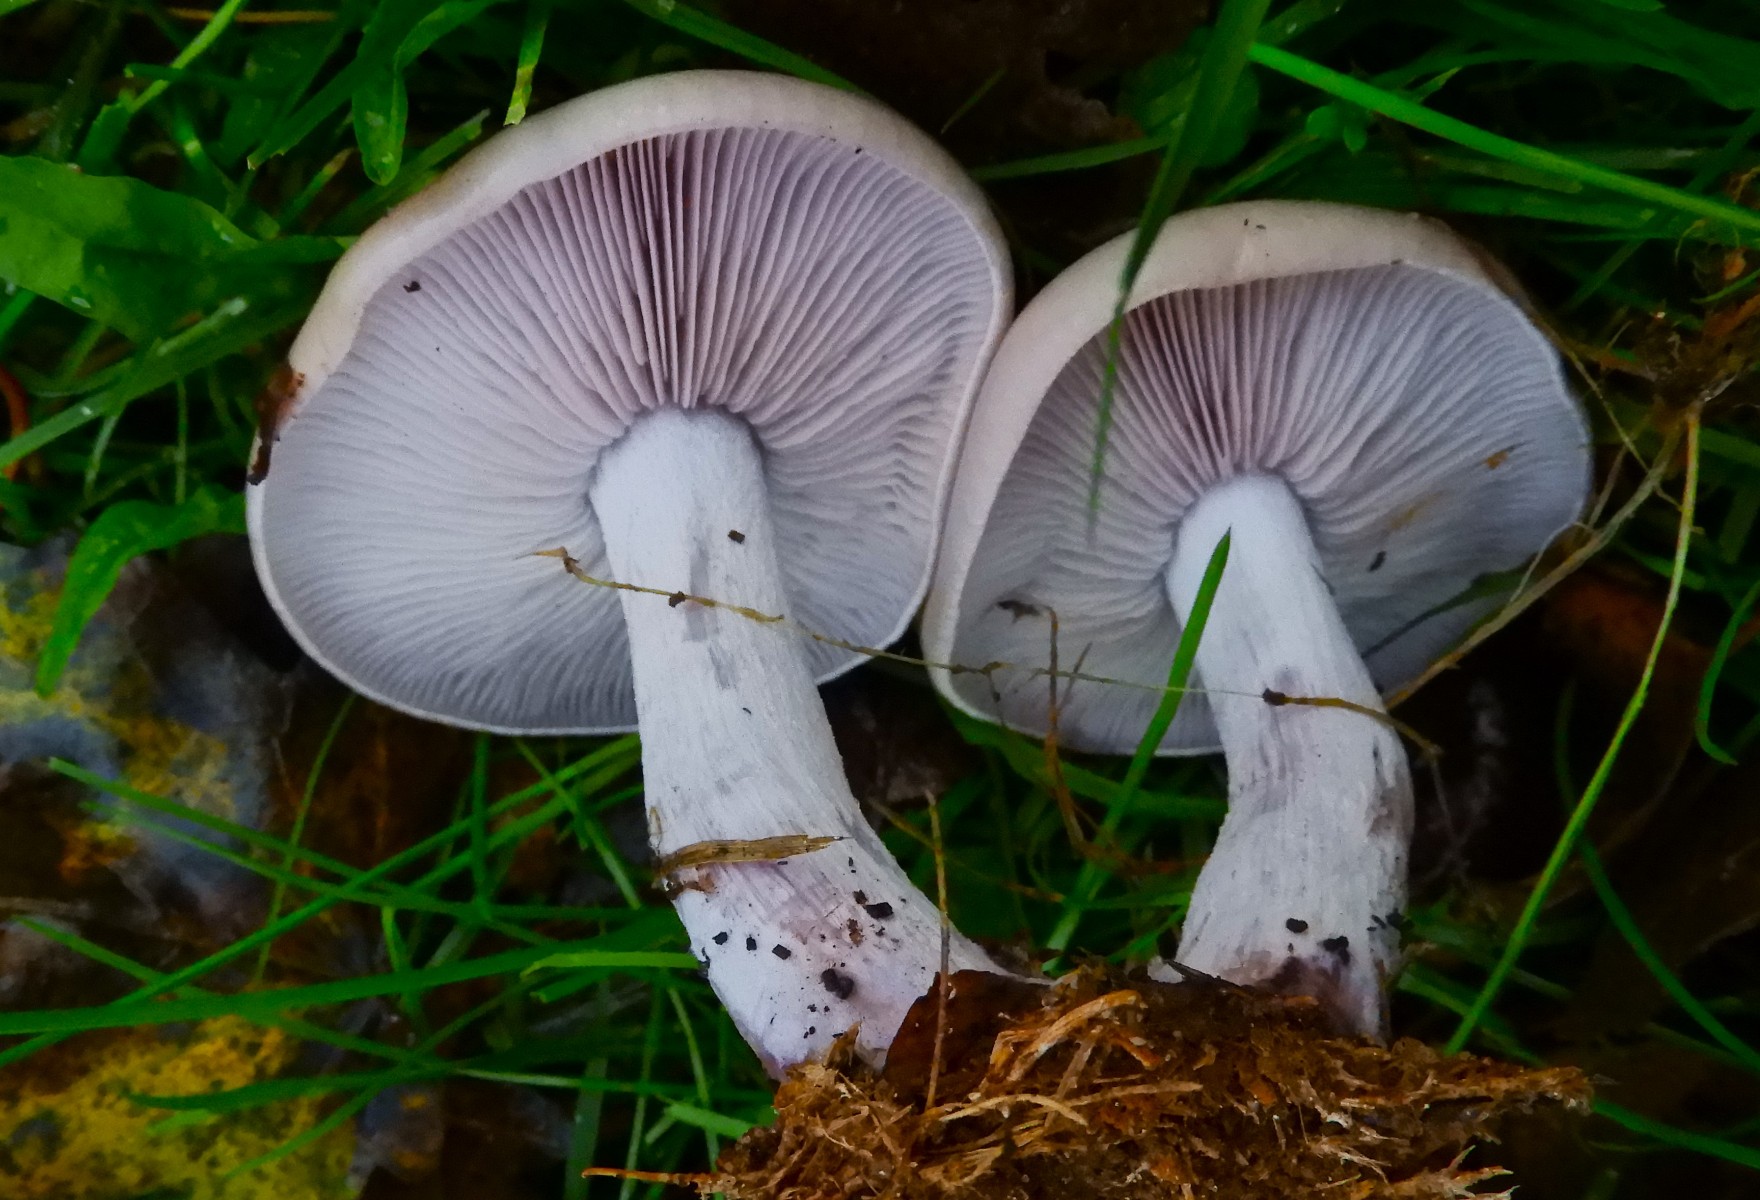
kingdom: Fungi
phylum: Basidiomycota
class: Agaricomycetes
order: Agaricales
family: Tricholomataceae
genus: Lepista
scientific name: Lepista nuda
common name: violet hekseringshat
